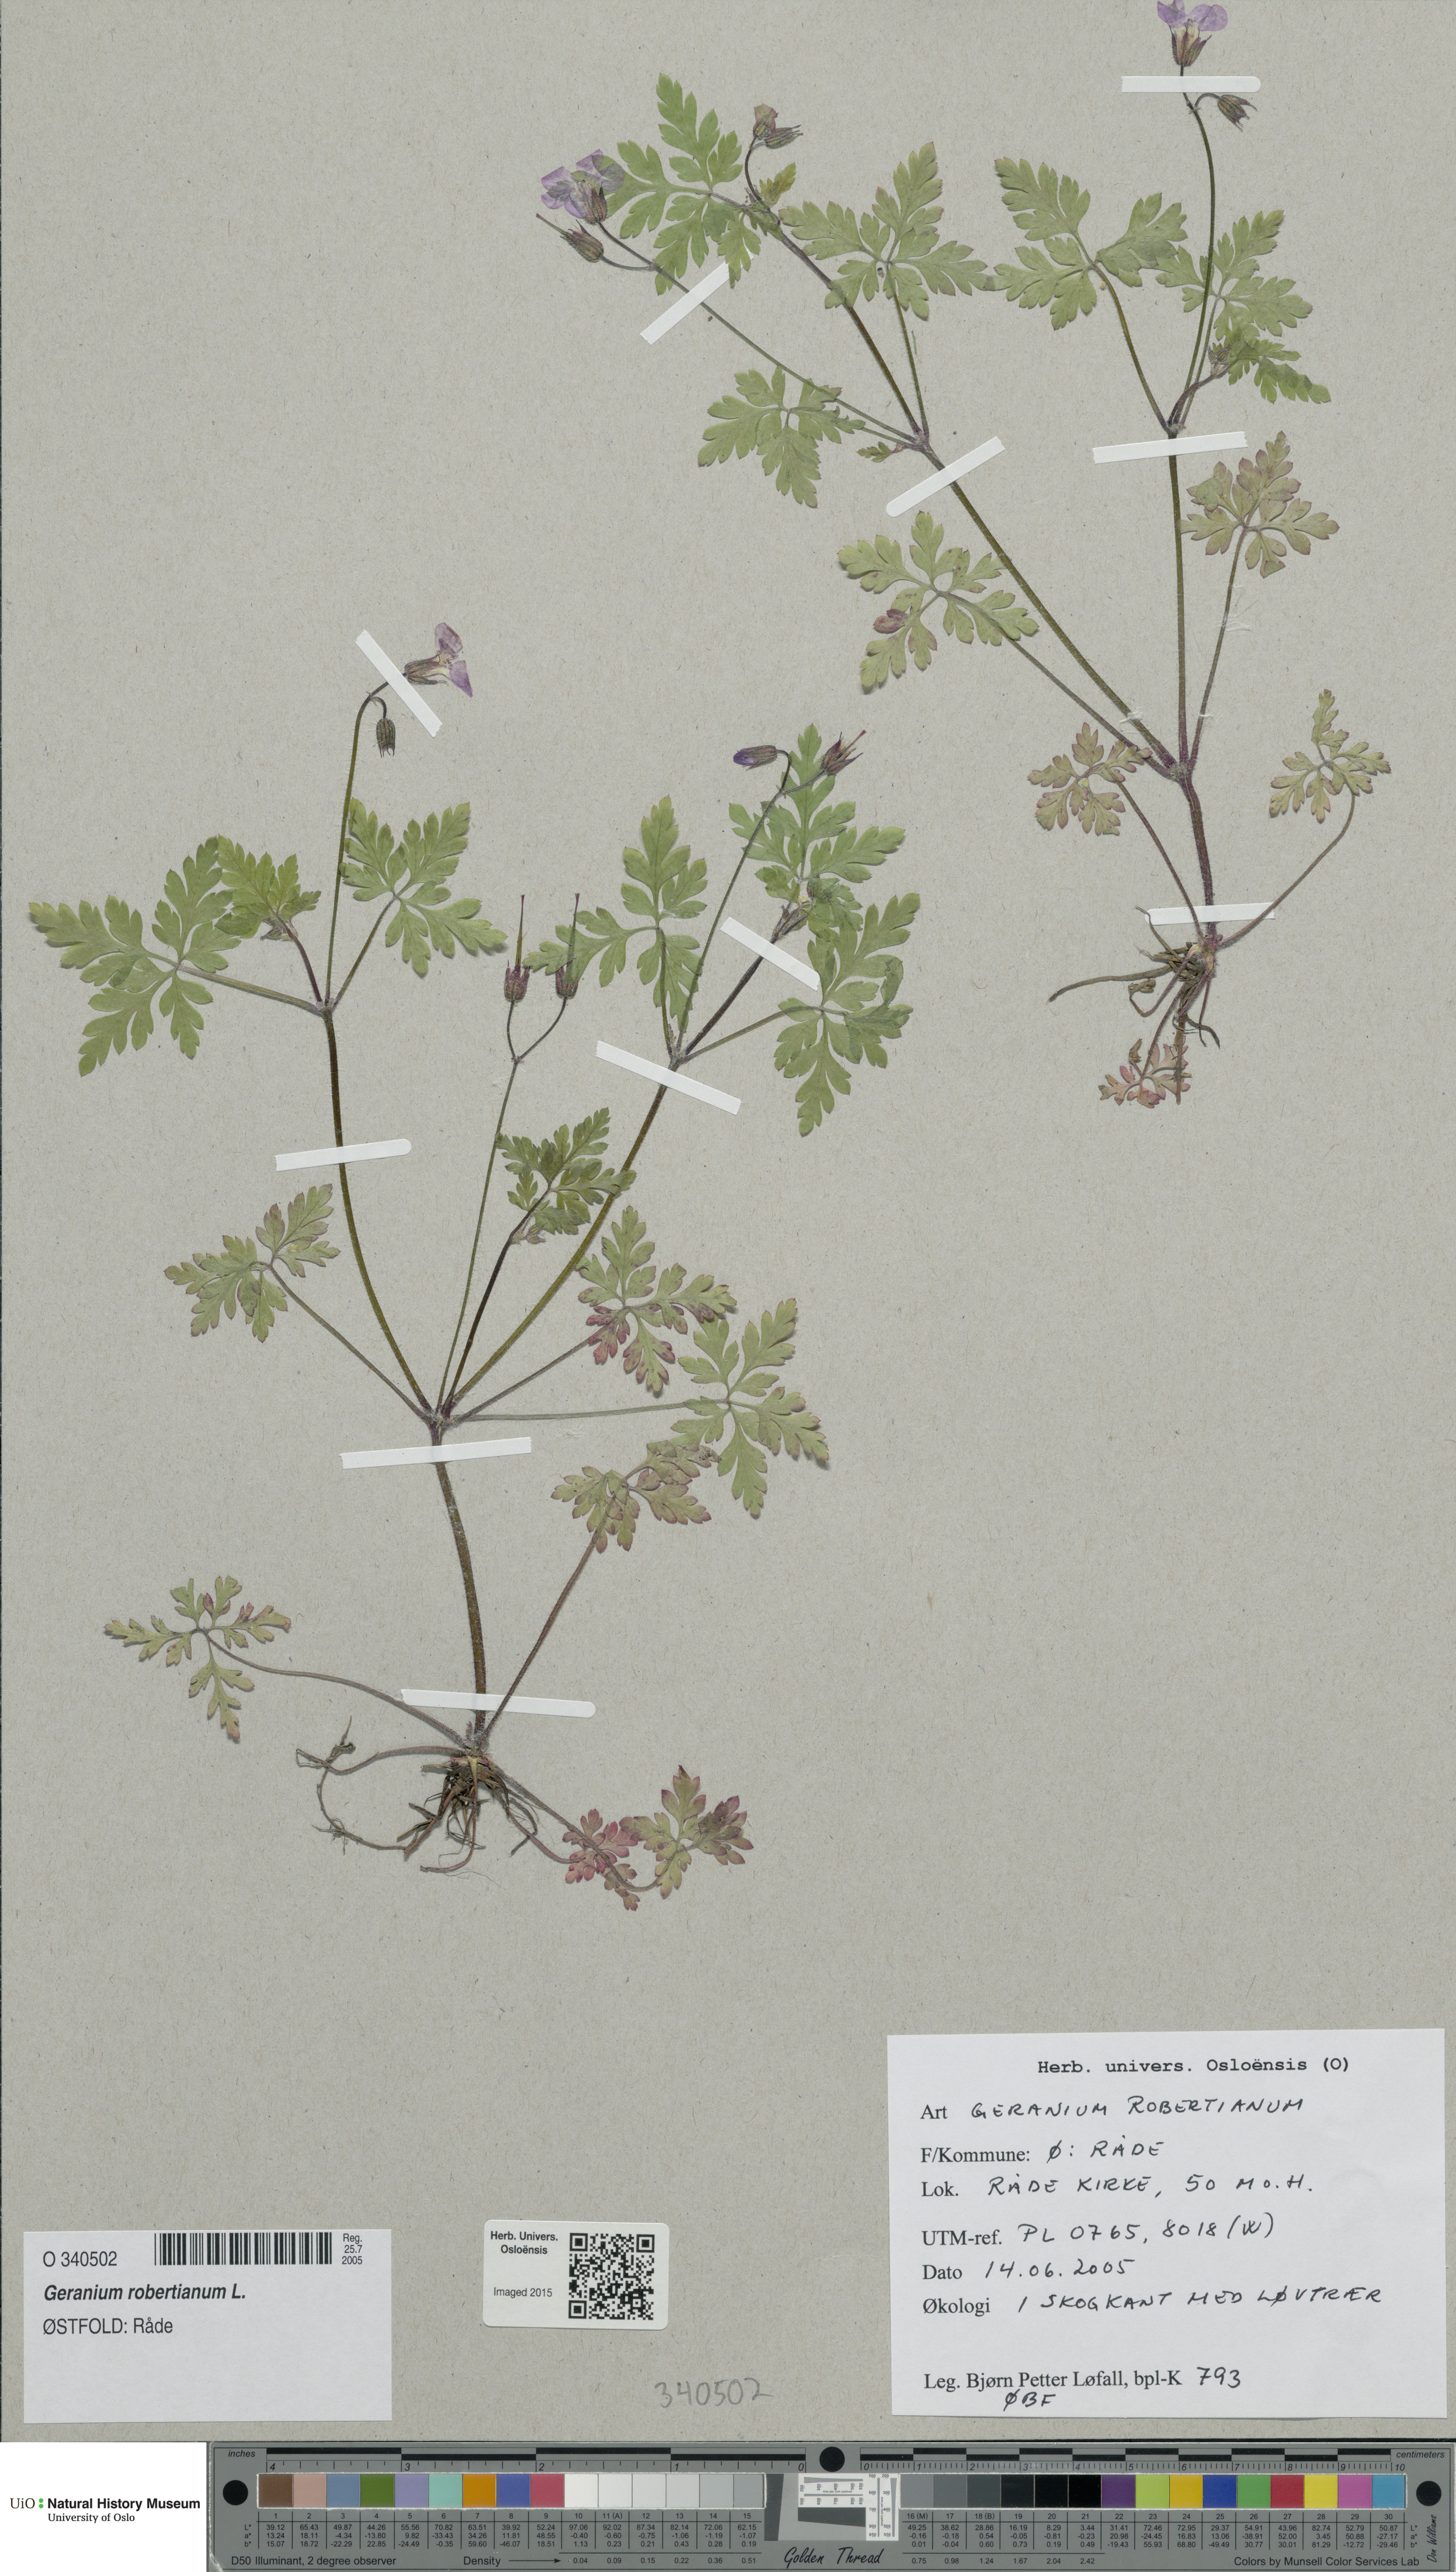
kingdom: Plantae
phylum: Tracheophyta
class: Magnoliopsida
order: Geraniales
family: Geraniaceae
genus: Geranium
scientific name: Geranium robertianum
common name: Herb-robert
